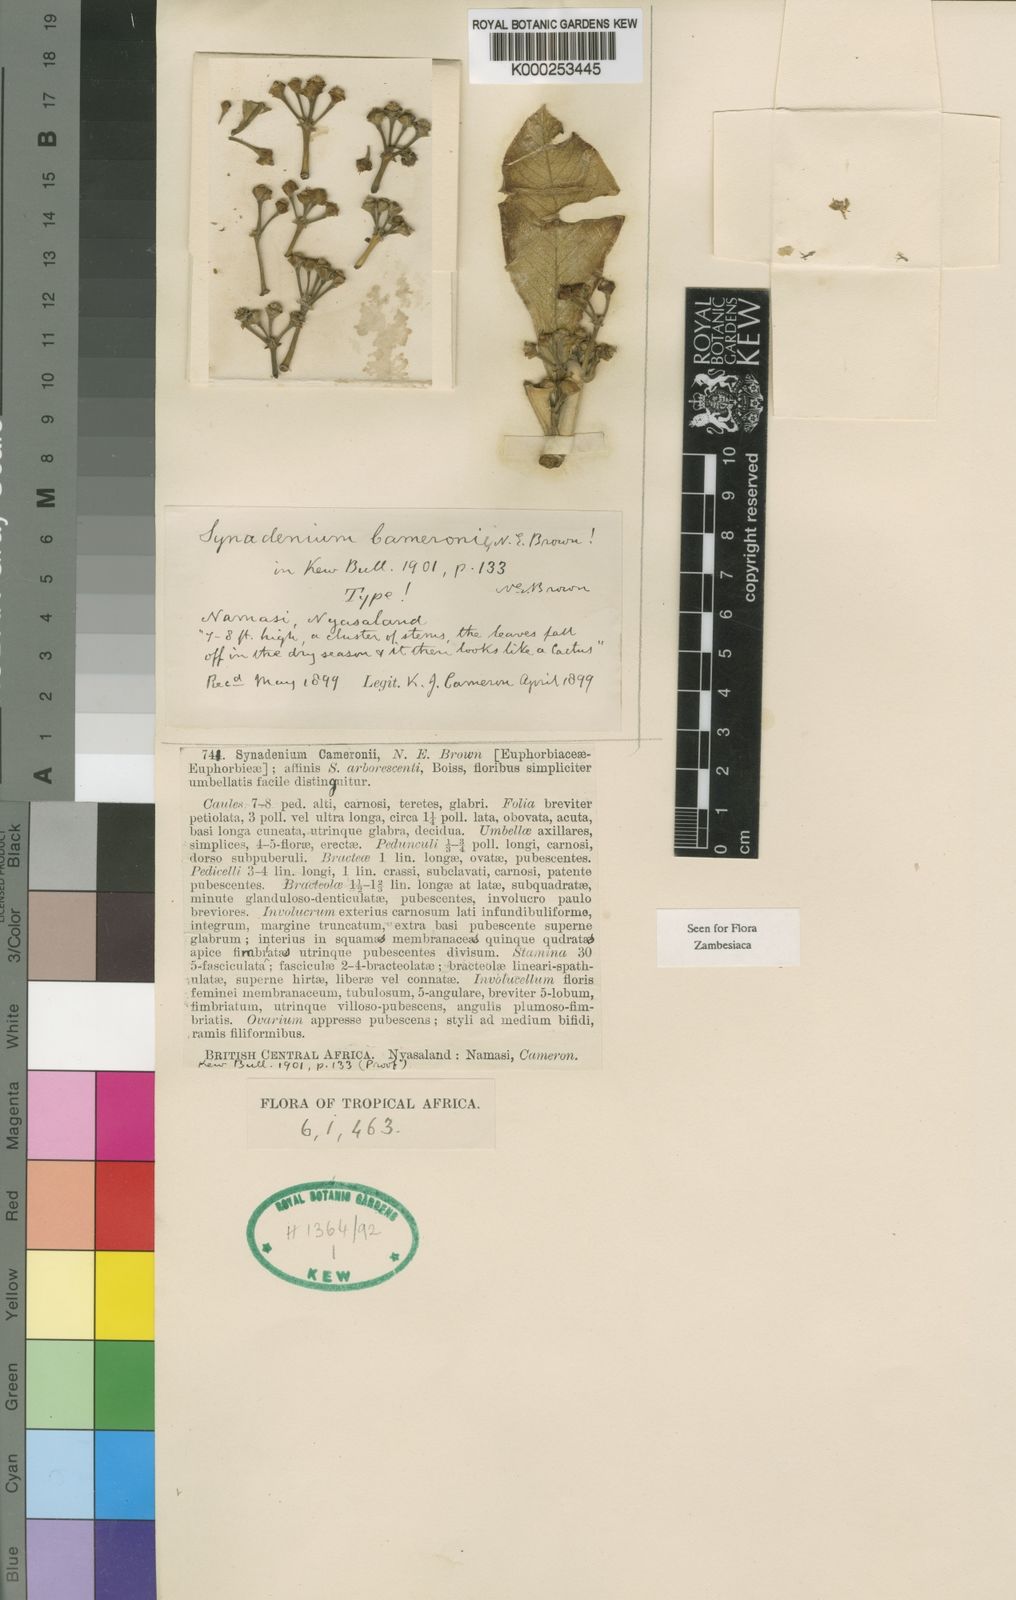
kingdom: Plantae
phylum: Tracheophyta
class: Magnoliopsida
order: Malpighiales
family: Euphorbiaceae
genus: Euphorbia
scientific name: Euphorbia syncameronii
